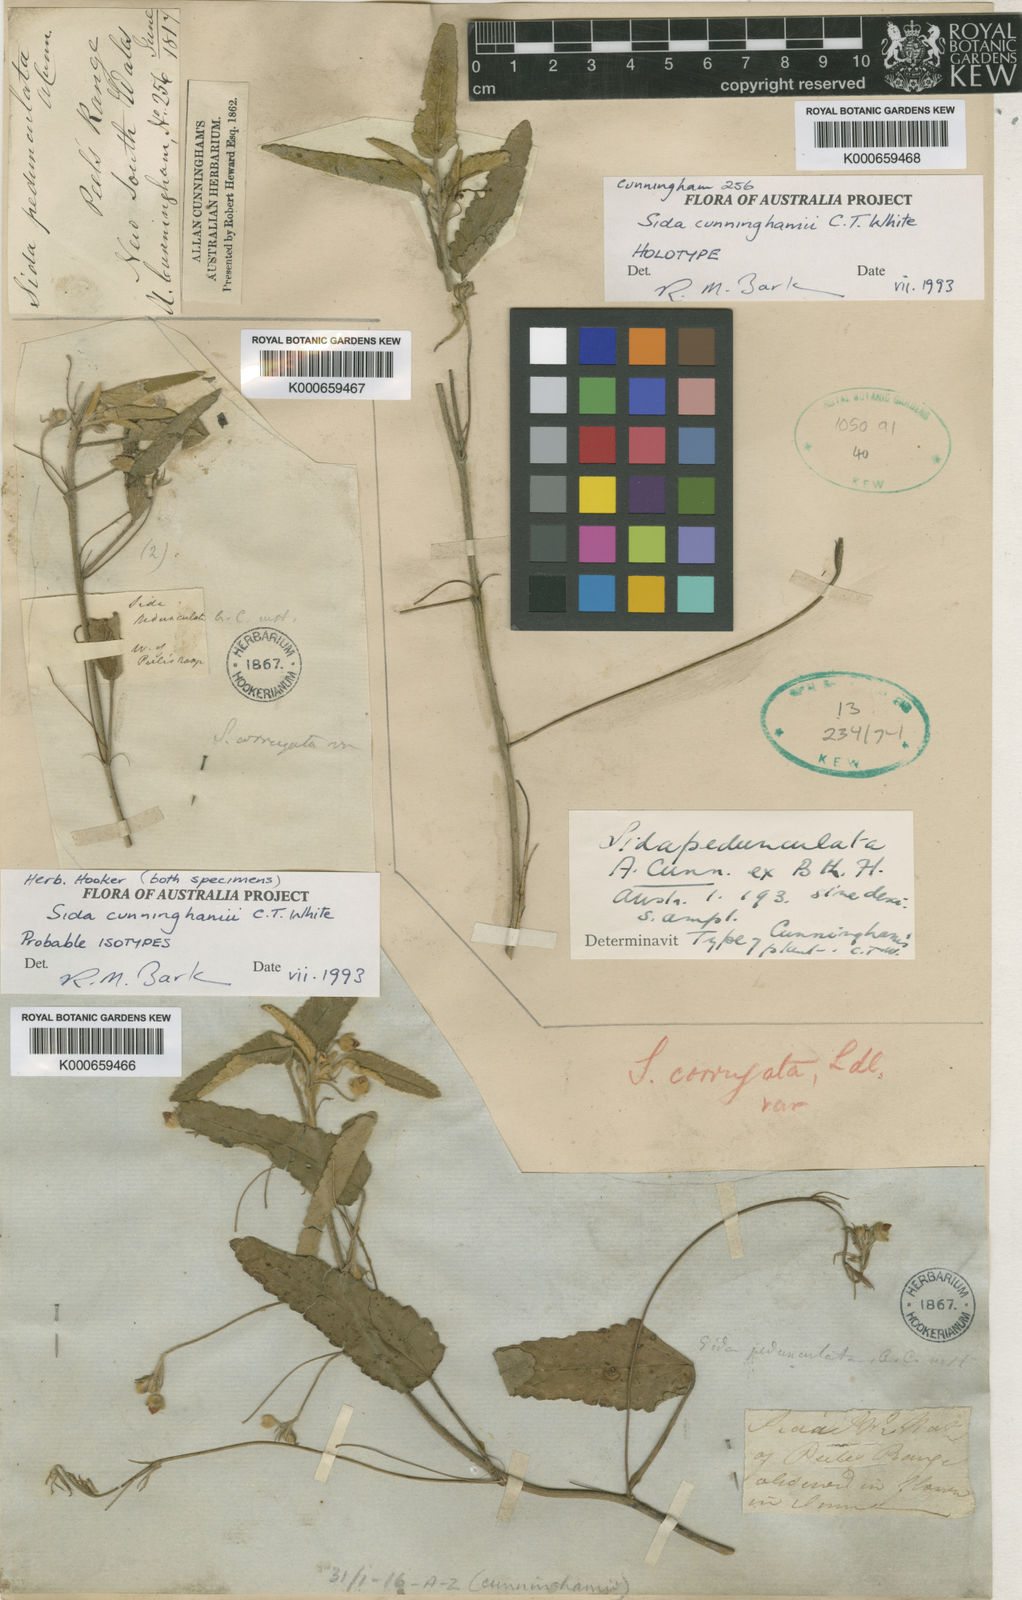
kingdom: Plantae
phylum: Tracheophyta
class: Magnoliopsida
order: Malvales
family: Malvaceae
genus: Sida
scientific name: Sida pedunculata
